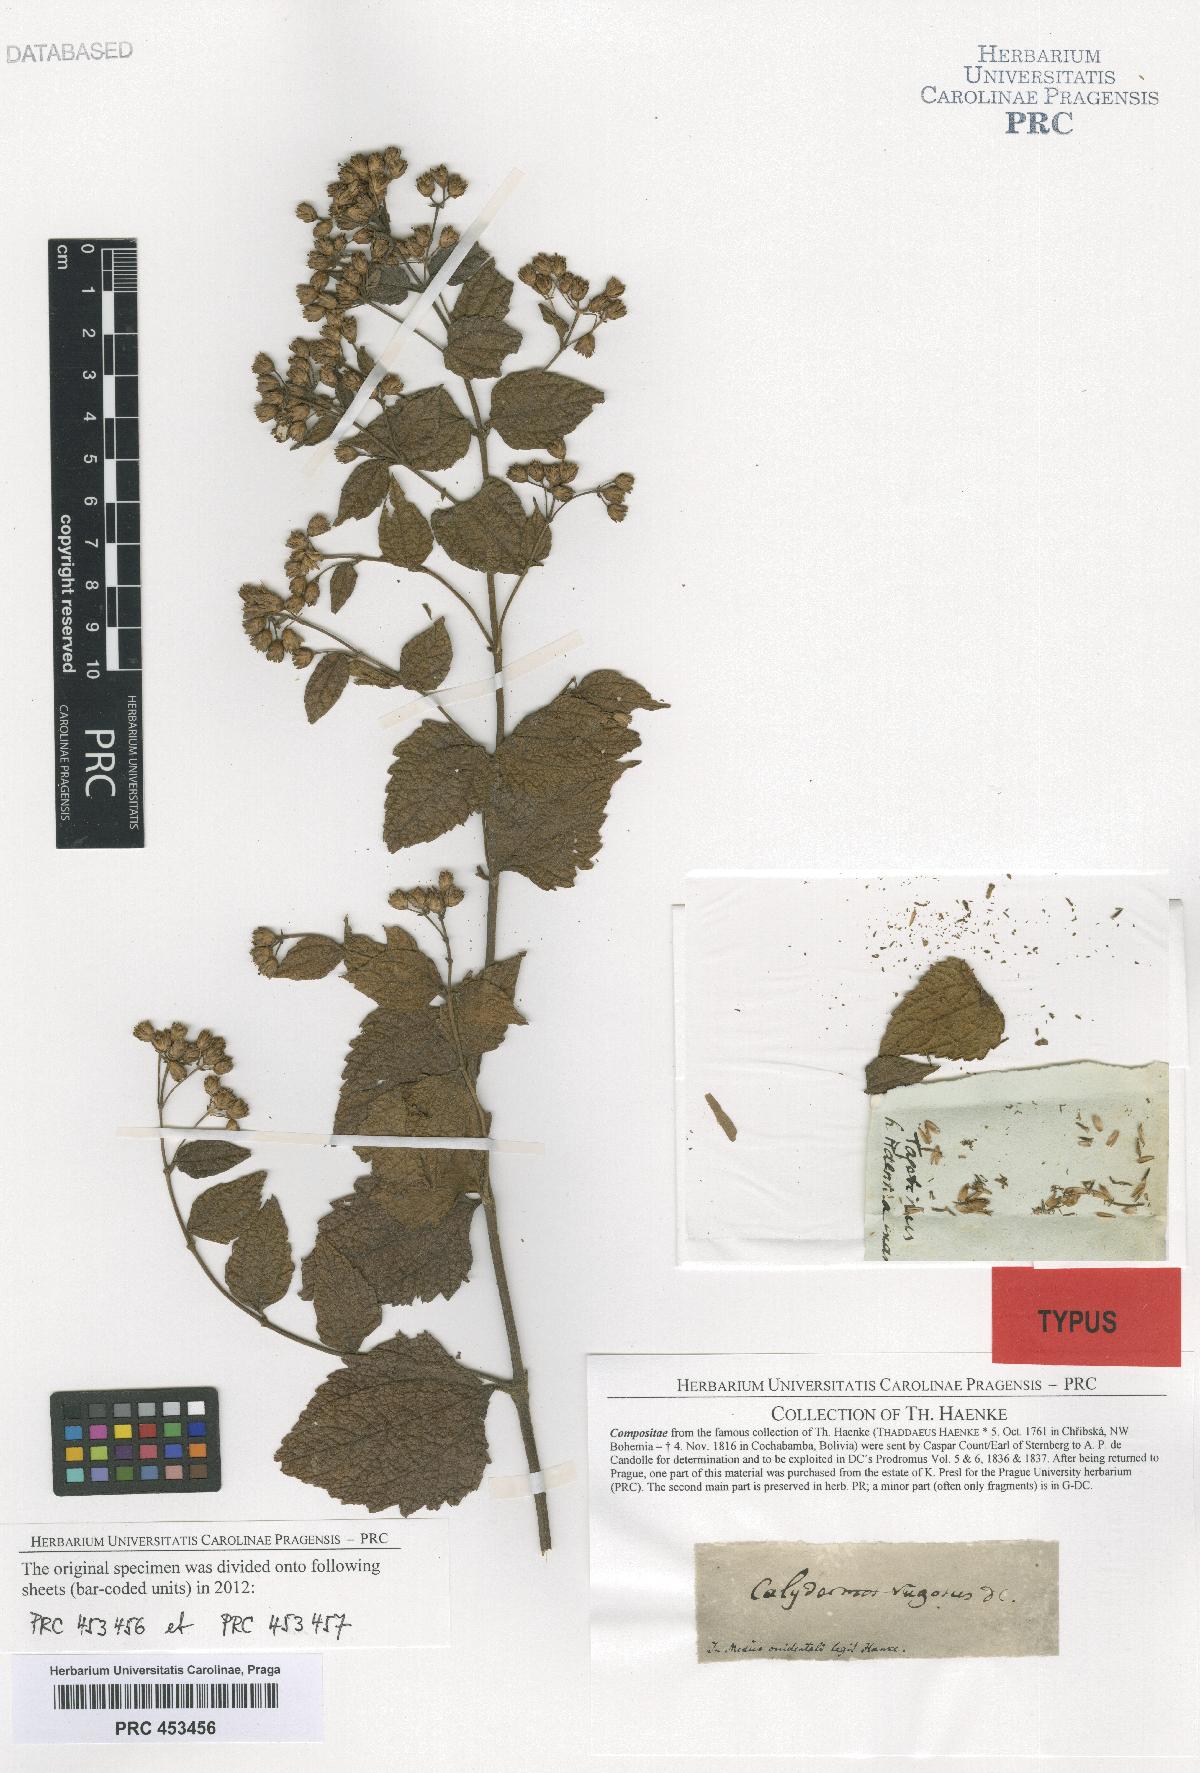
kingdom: Plantae
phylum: Tracheophyta
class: Magnoliopsida
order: Asterales
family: Asteraceae
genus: Calea
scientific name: Calea ternifolia
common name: Mexican calea
